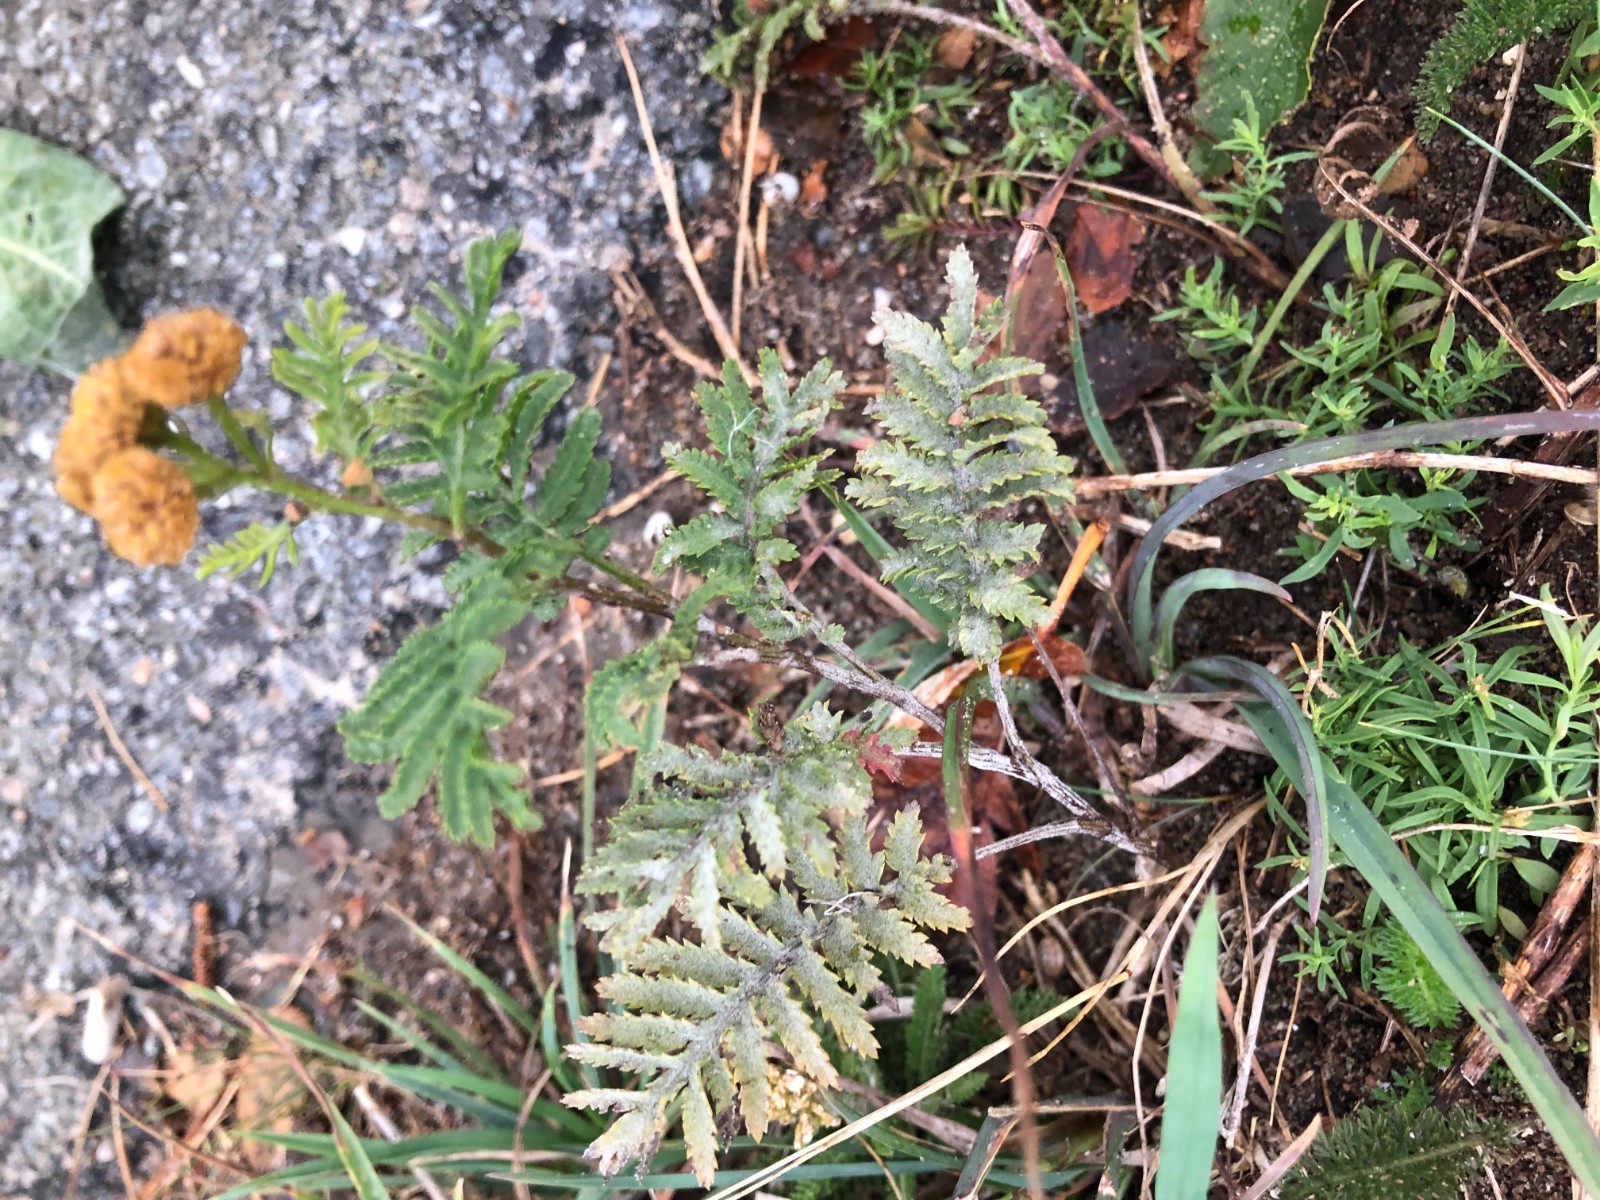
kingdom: Fungi
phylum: Basidiomycota
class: Pucciniomycetes
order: Pucciniales
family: Pucciniaceae
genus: Puccinia
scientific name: Puccinia tanaceti
